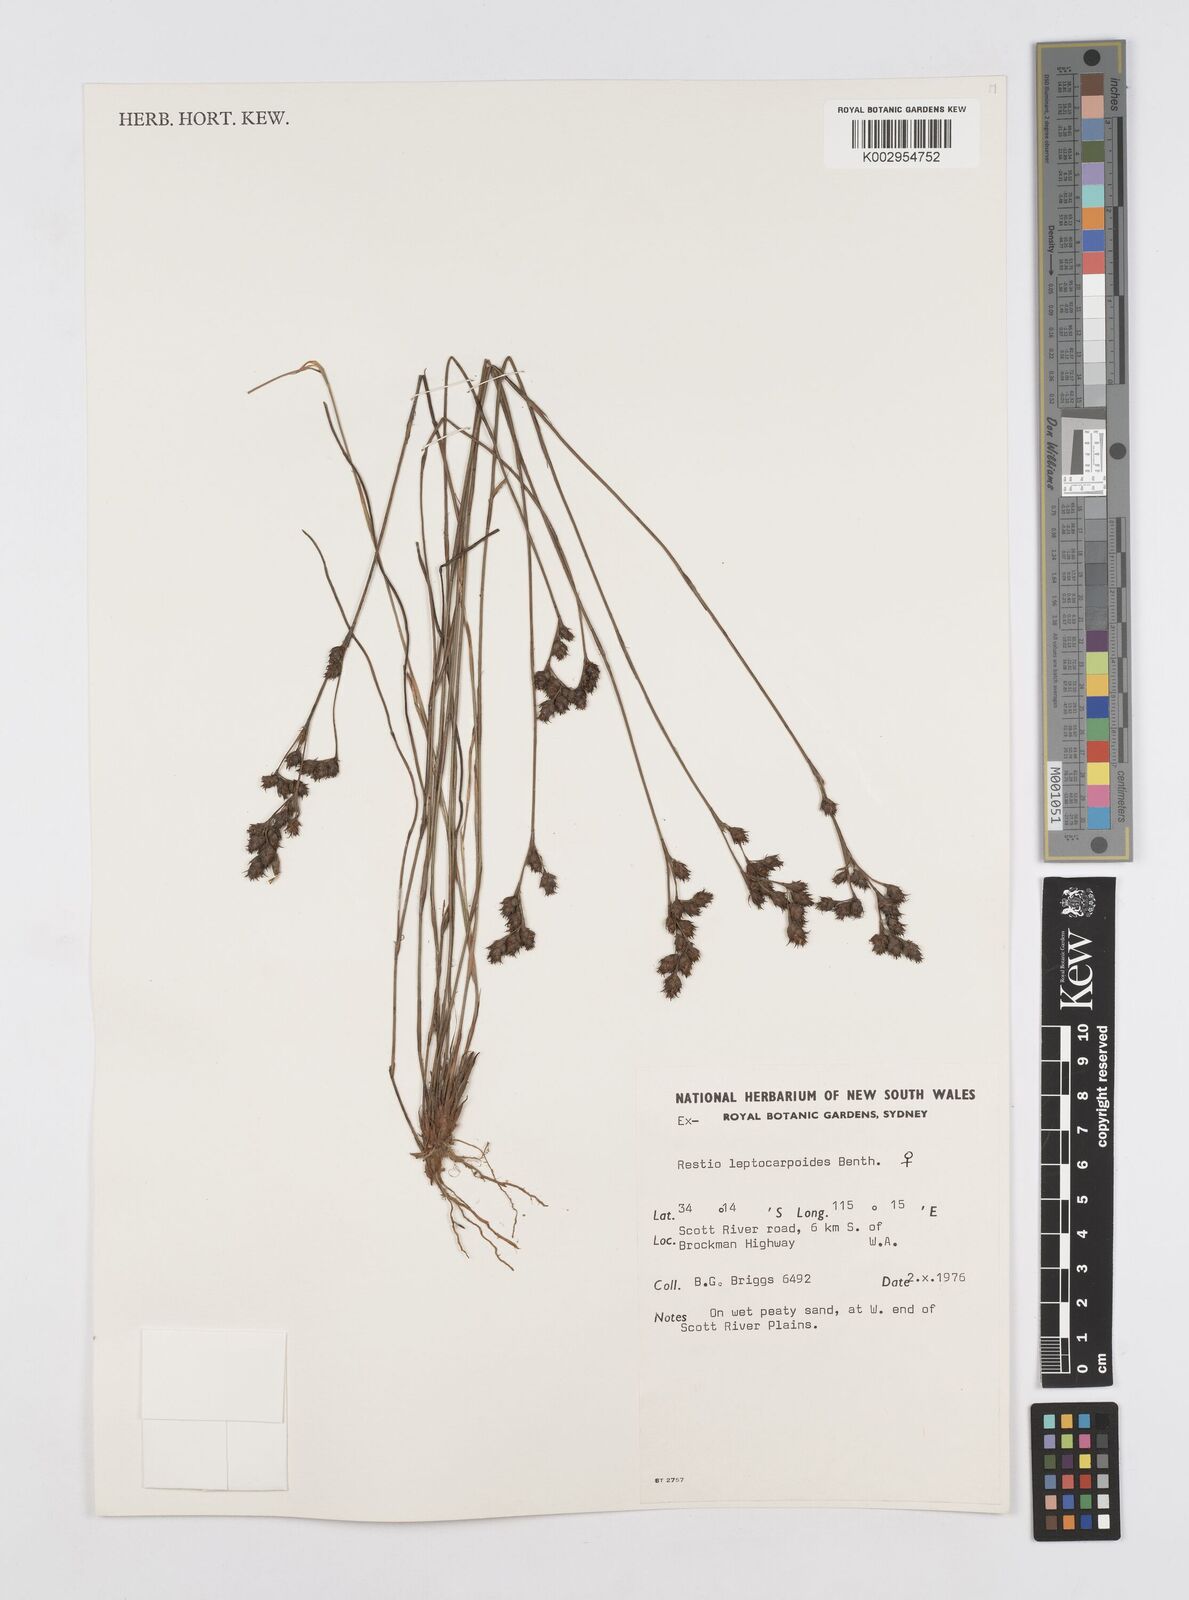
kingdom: Plantae
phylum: Tracheophyta
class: Liliopsida
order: Poales
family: Restionaceae
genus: Cytogonidium
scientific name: Cytogonidium leptocarpoides
